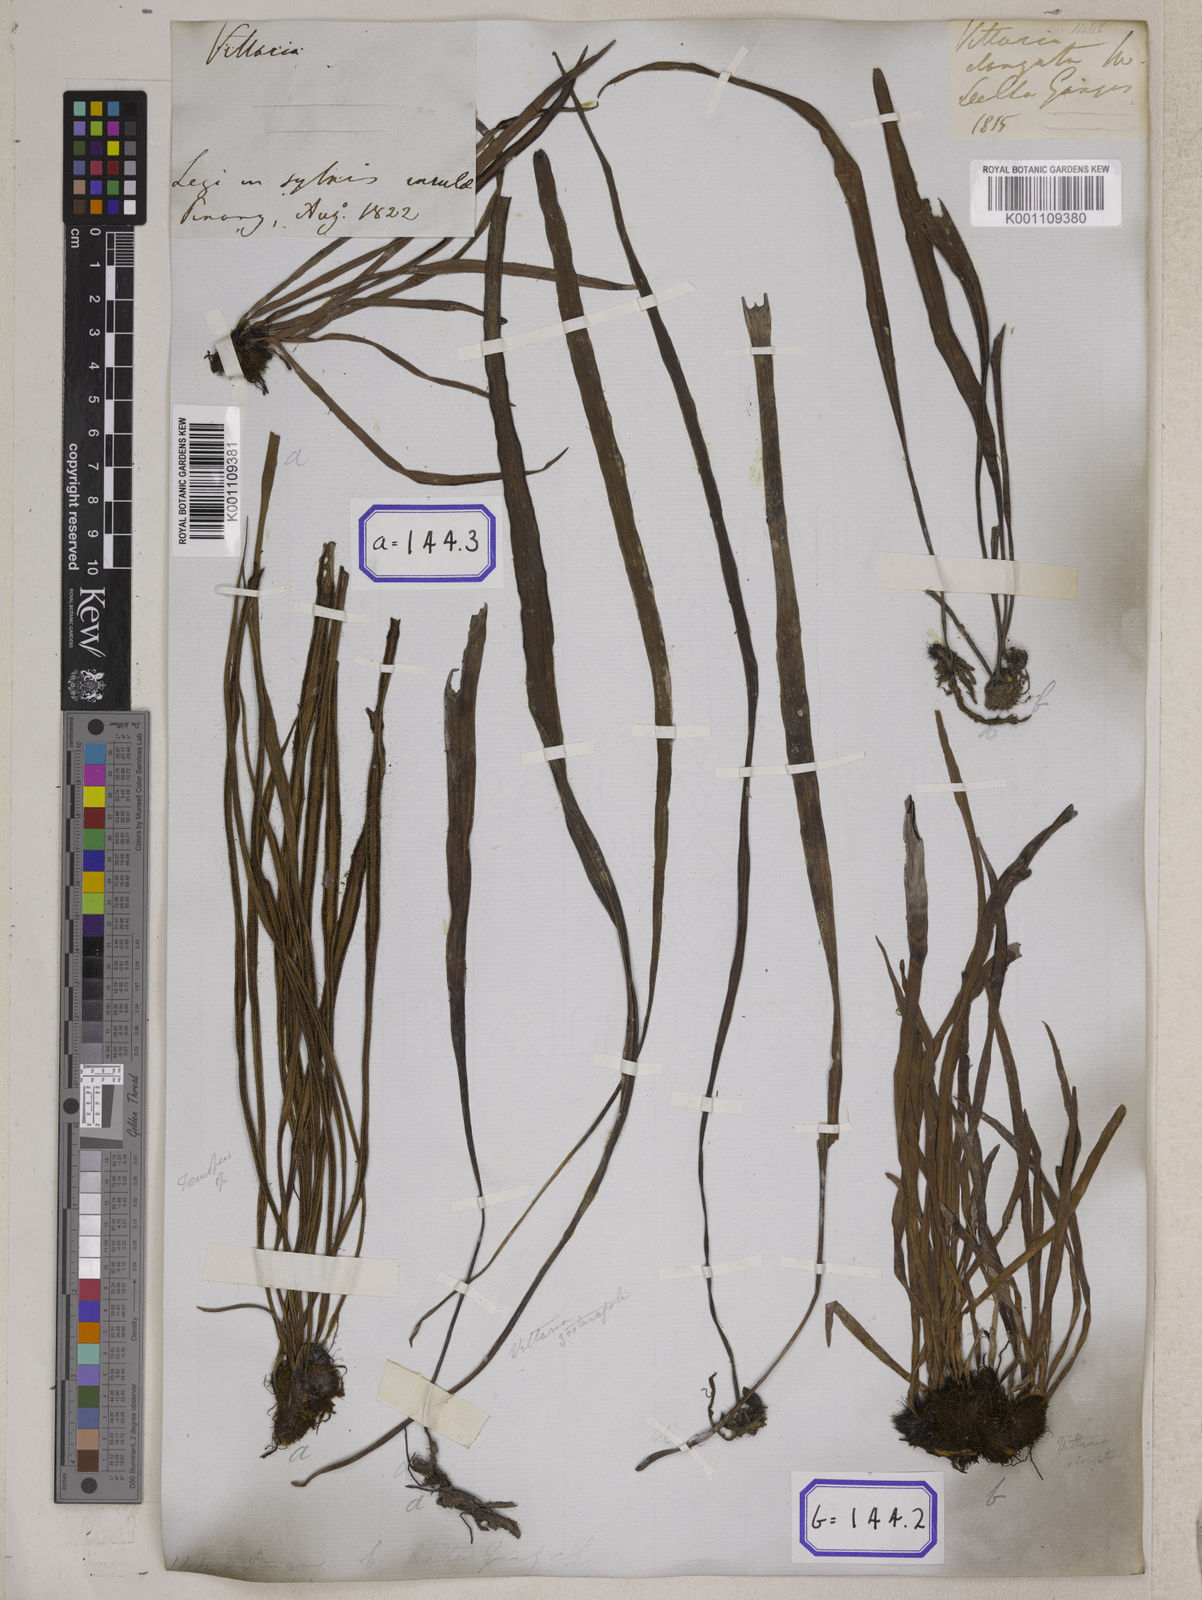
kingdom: Plantae
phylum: Tracheophyta
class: Polypodiopsida
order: Polypodiales
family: Pteridaceae
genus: Haplopteris
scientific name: Haplopteris elongata
